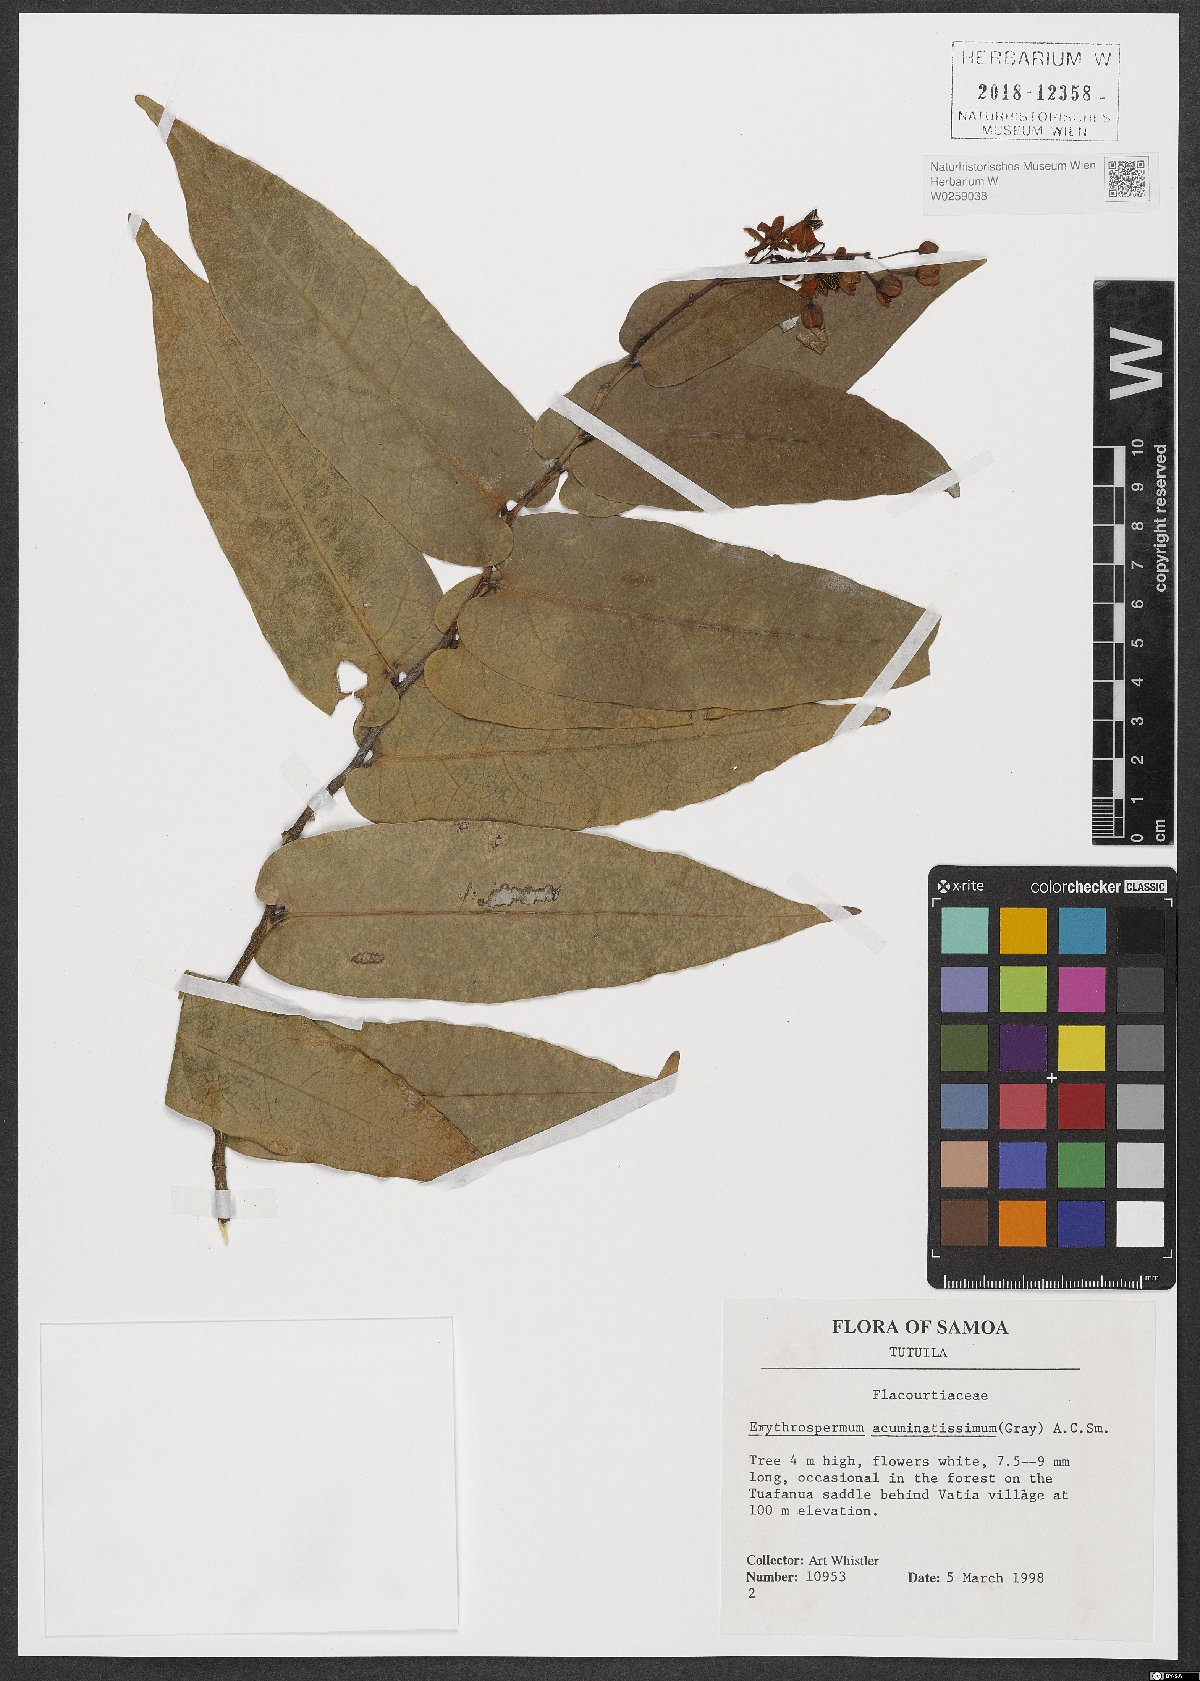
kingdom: Plantae
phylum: Tracheophyta
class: Magnoliopsida
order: Malpighiales
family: Achariaceae
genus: Erythrospermum
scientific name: Erythrospermum acuminatissimum
